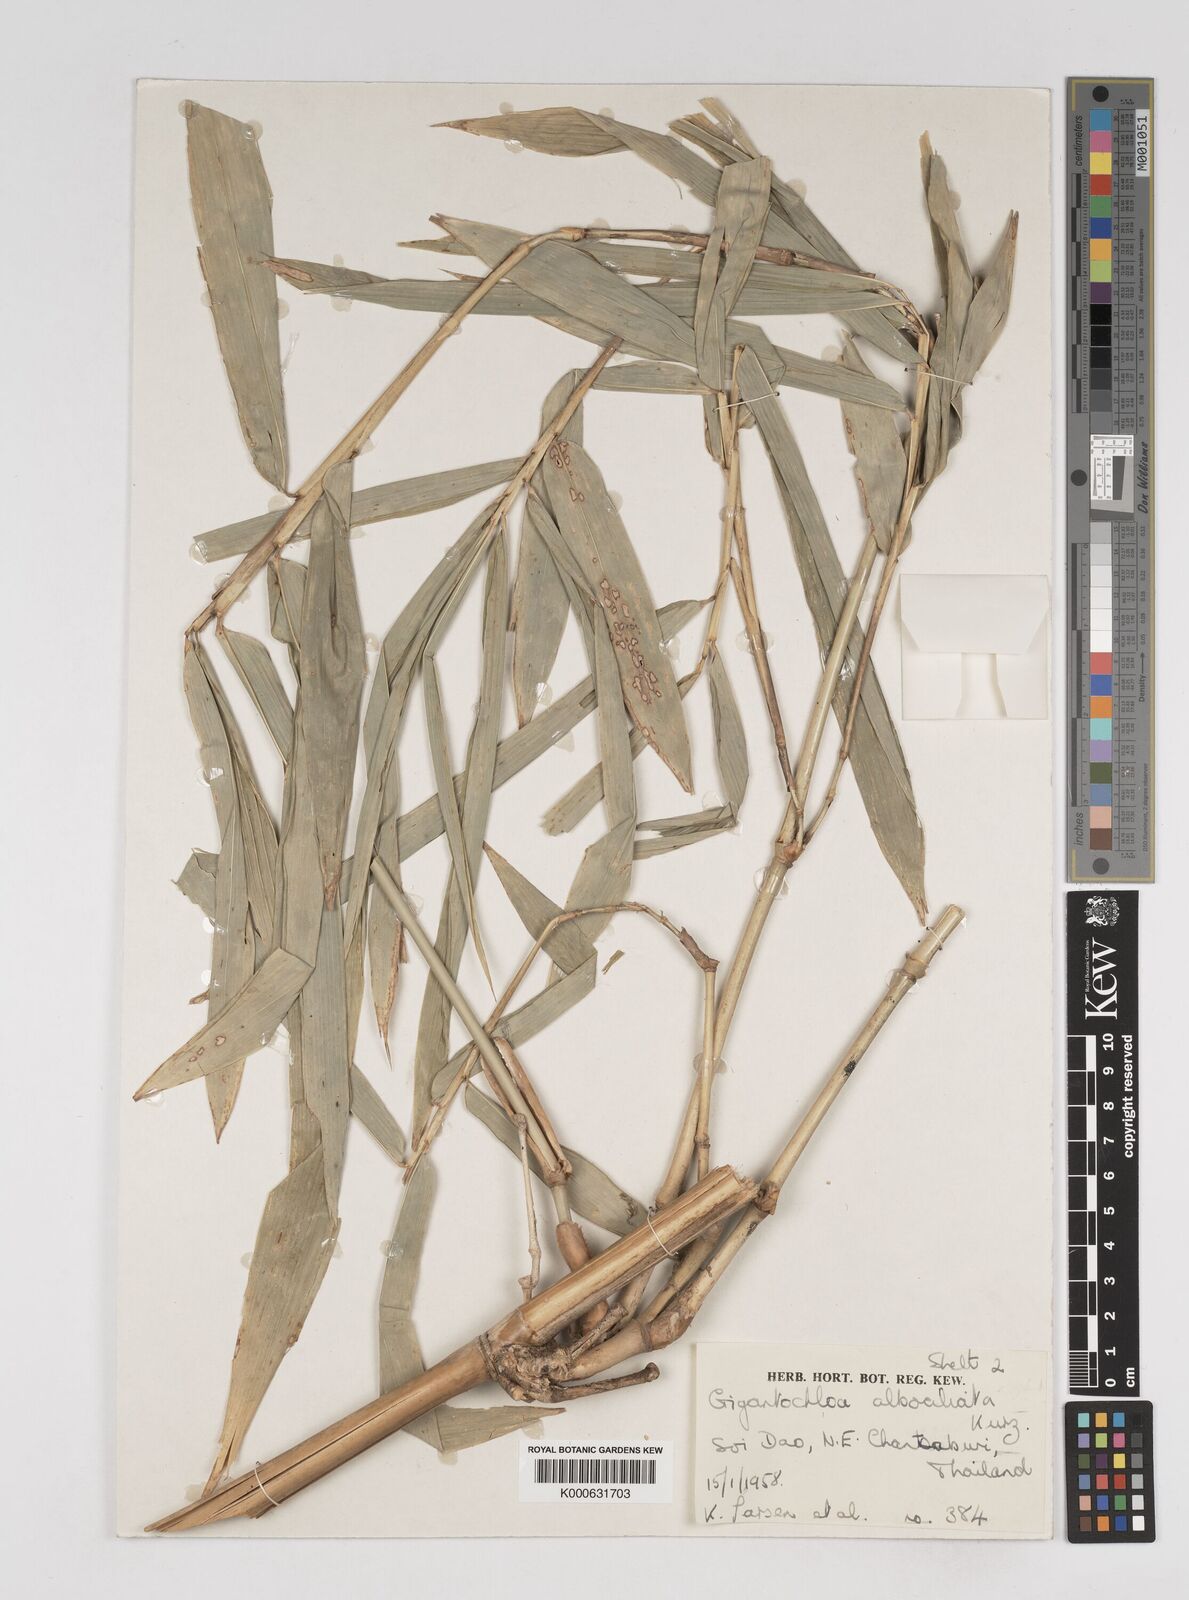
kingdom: Plantae
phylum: Tracheophyta
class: Liliopsida
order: Poales
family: Poaceae
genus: Gigantochloa
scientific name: Gigantochloa albociliata
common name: White-fringe gigantochloa
